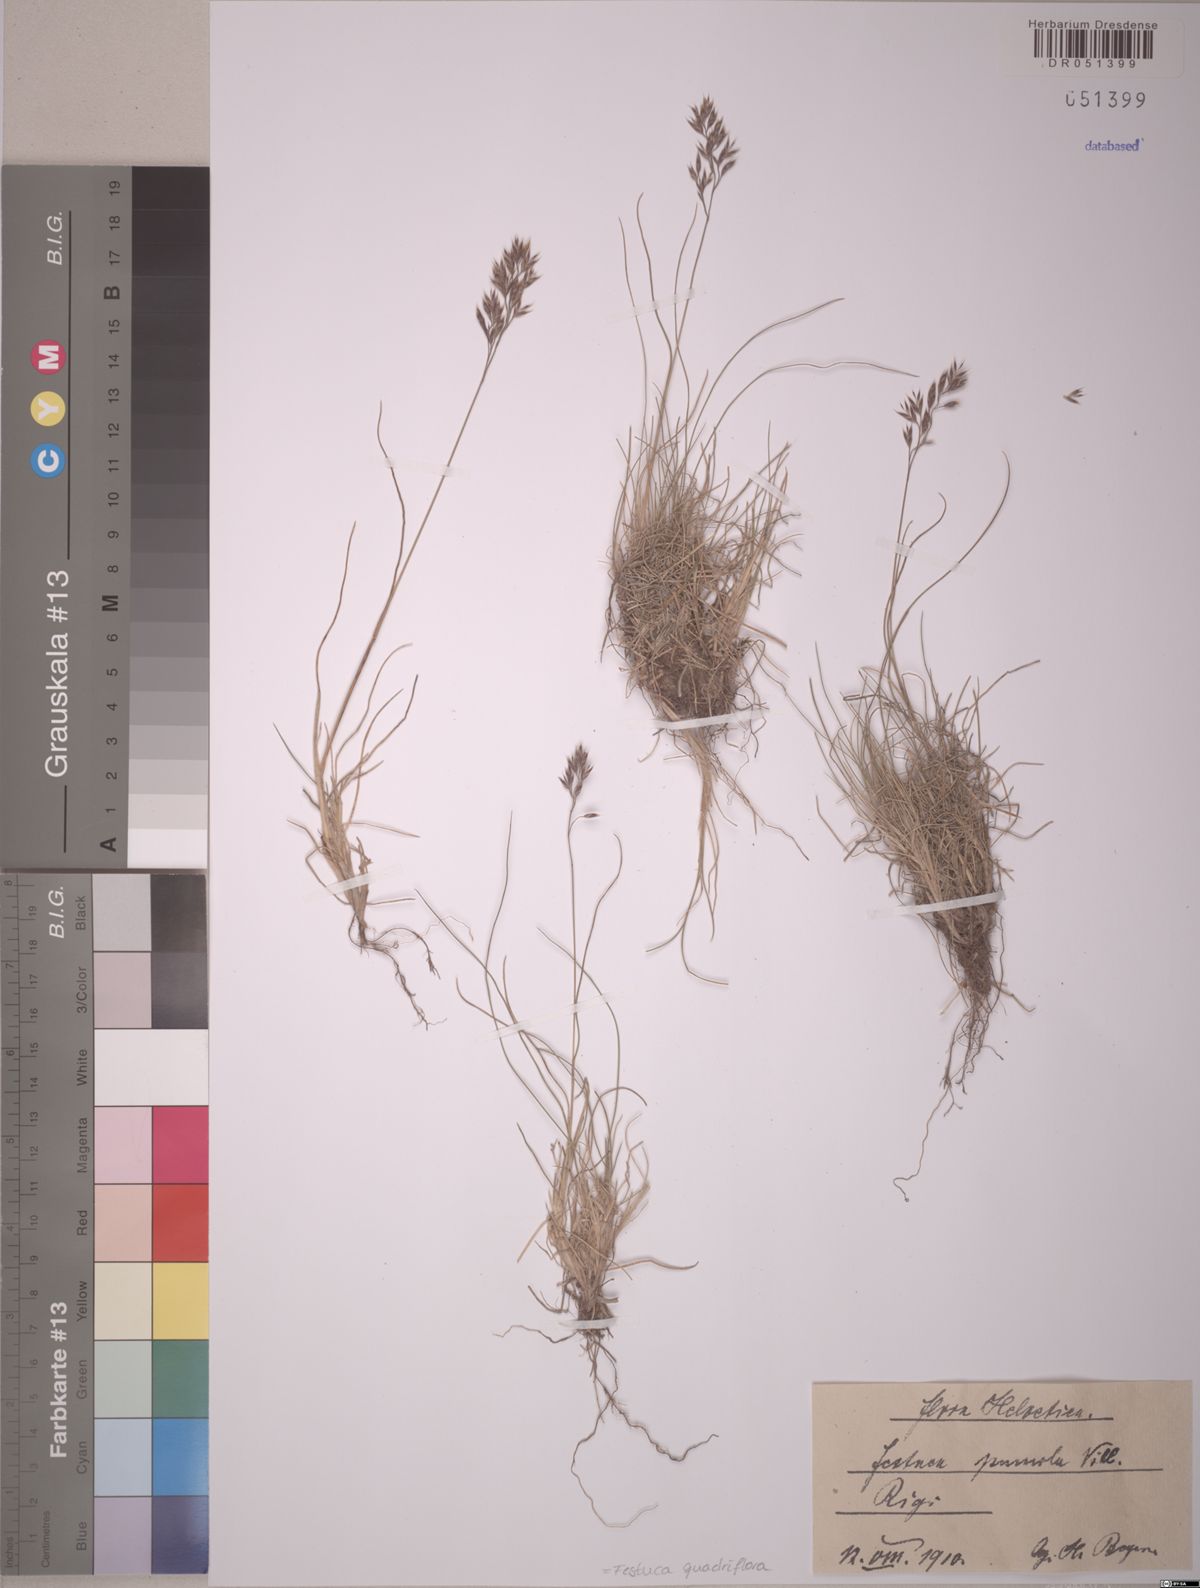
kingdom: Plantae
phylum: Tracheophyta
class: Liliopsida
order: Poales
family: Poaceae
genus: Festuca
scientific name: Festuca quadriflora
